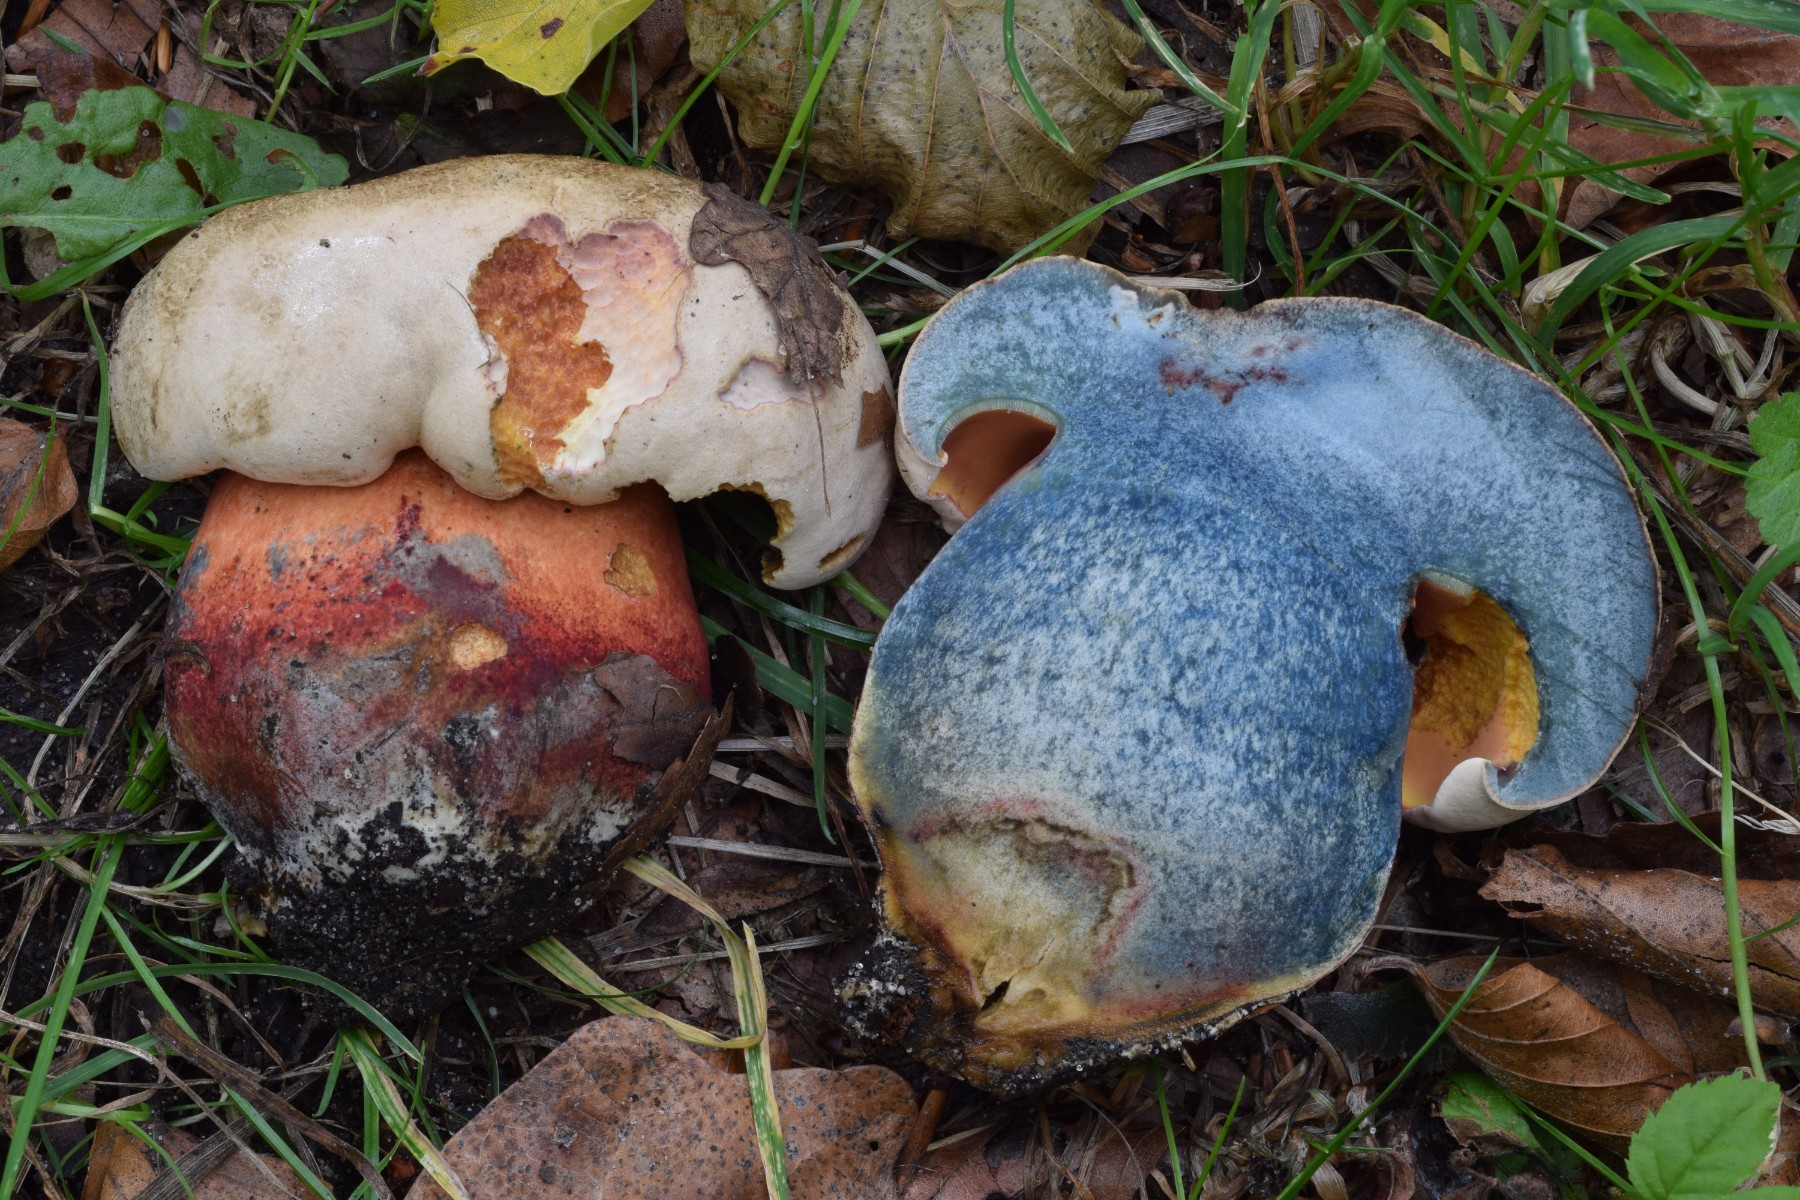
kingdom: Fungi
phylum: Basidiomycota
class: Agaricomycetes
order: Boletales
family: Boletaceae
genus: Rubroboletus
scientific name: Rubroboletus legaliae
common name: djævle-rørhat
